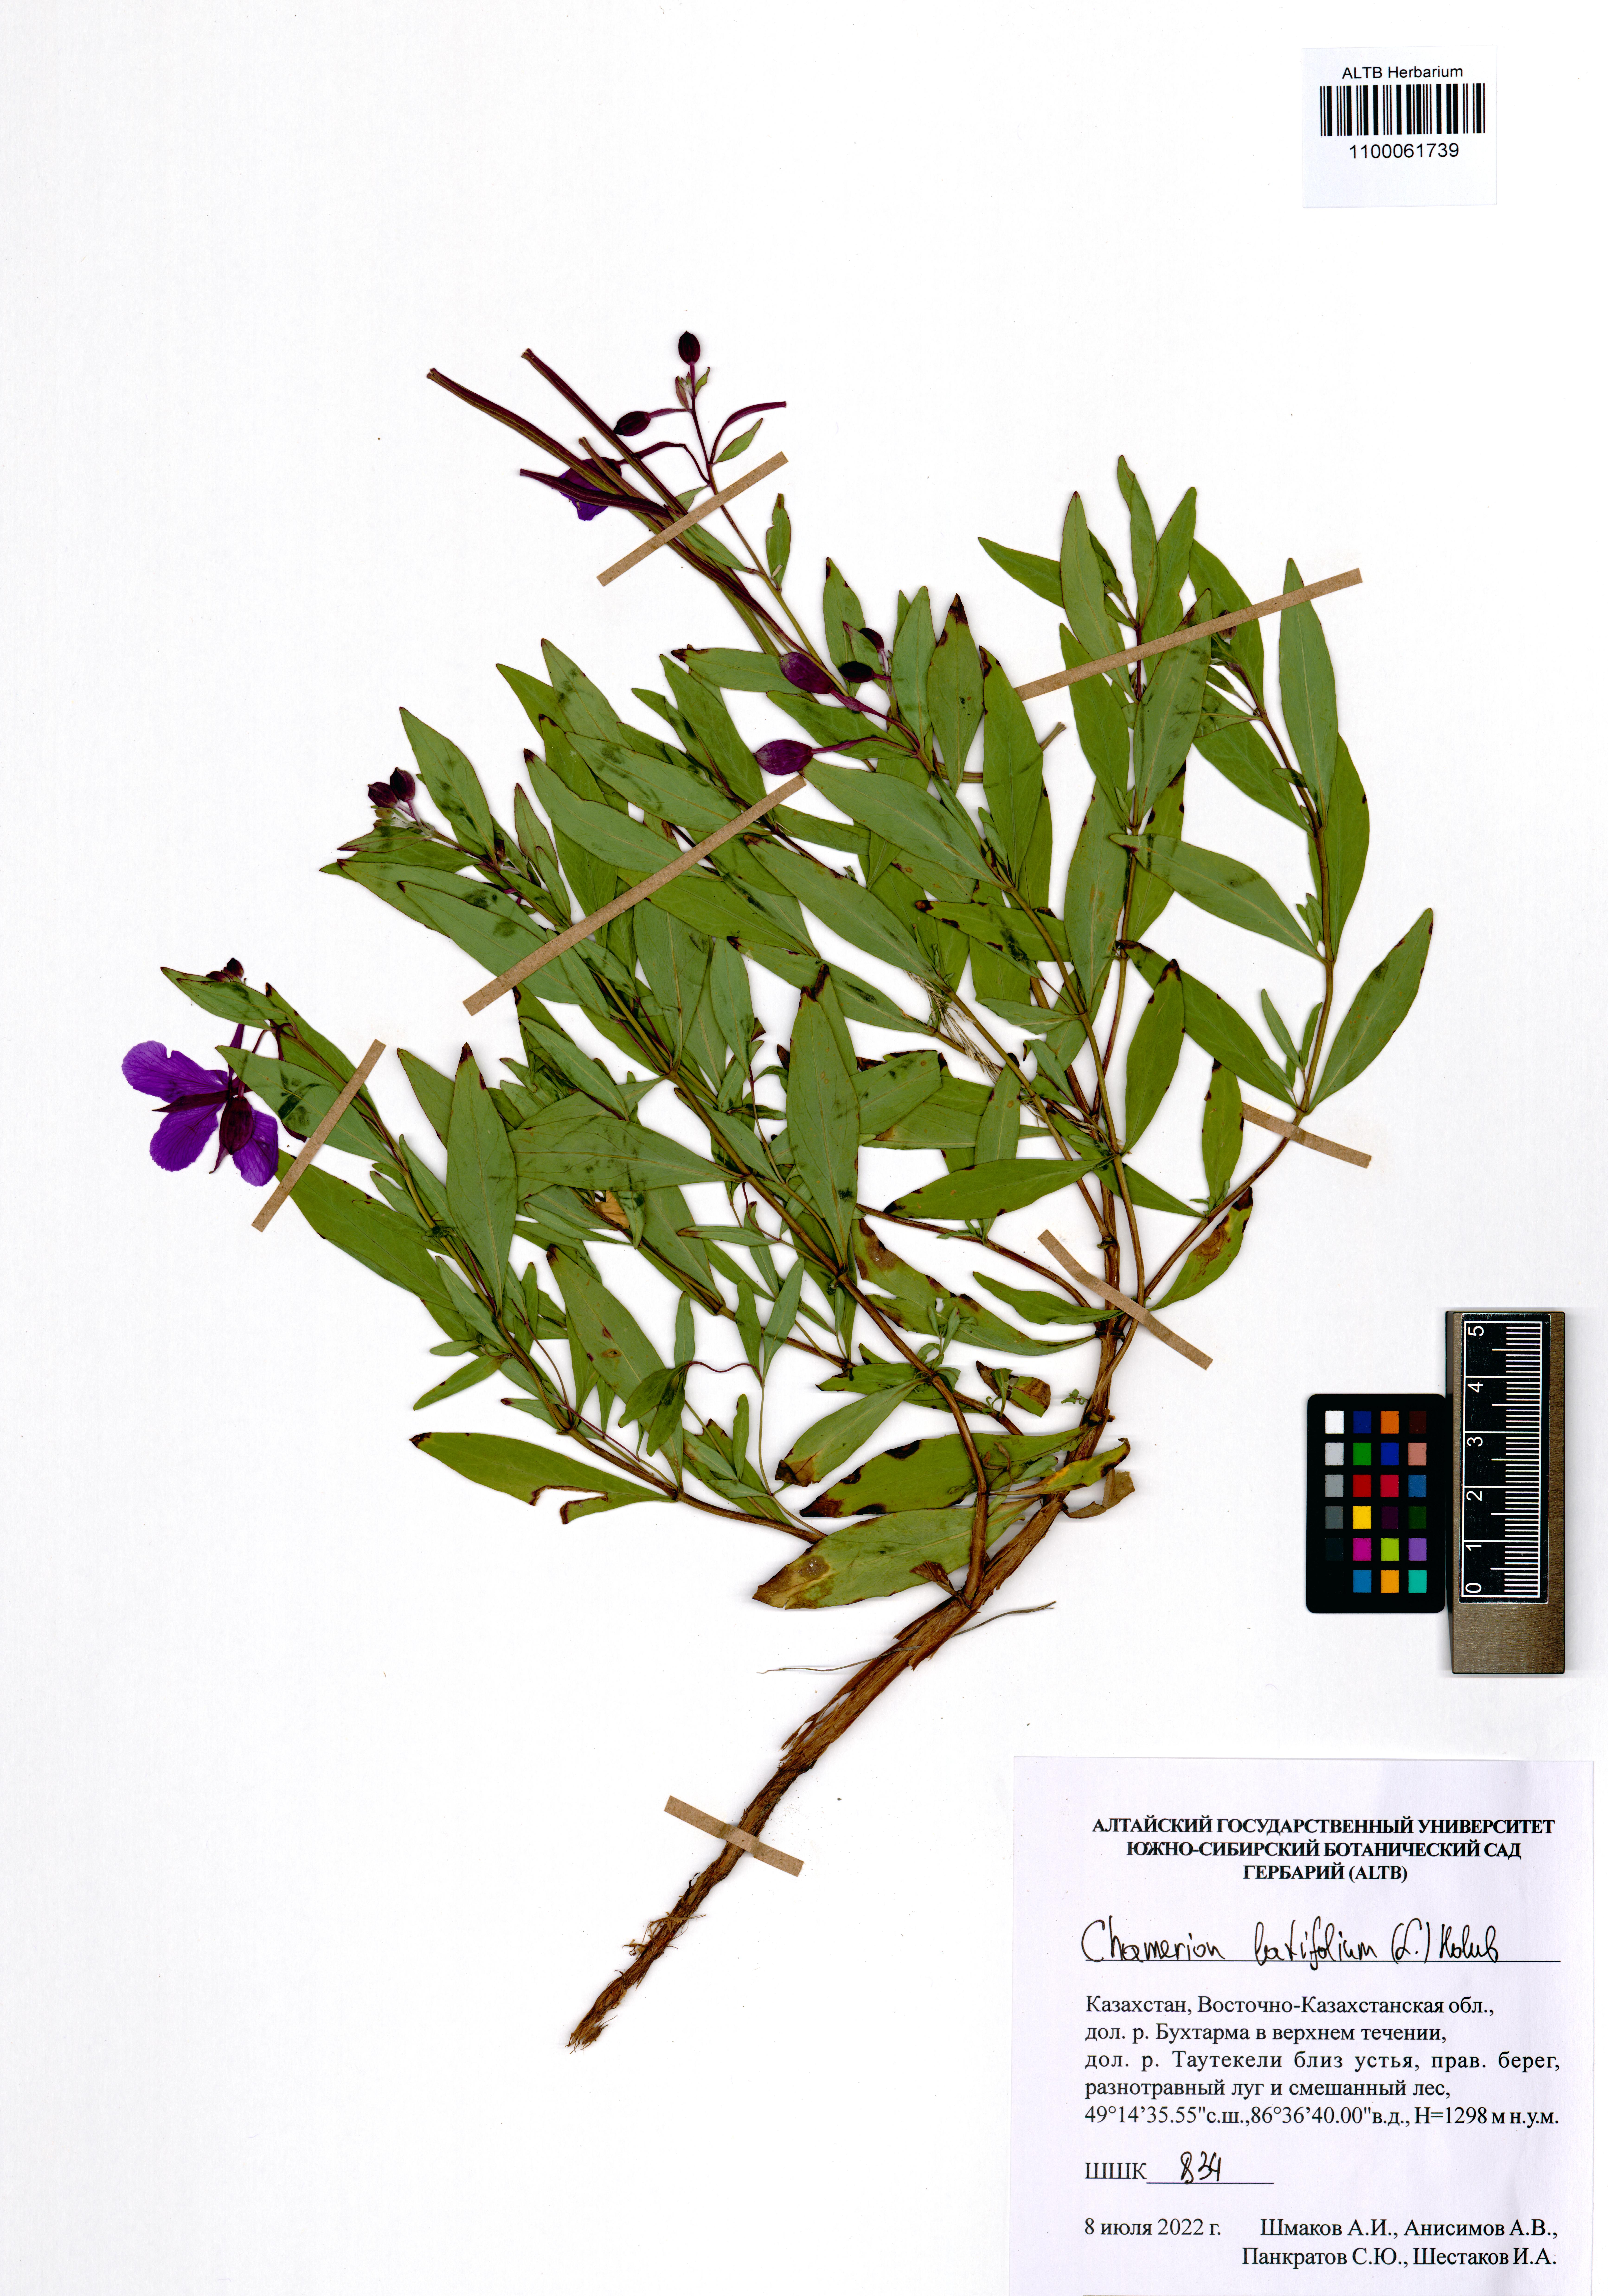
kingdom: Plantae
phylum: Tracheophyta
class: Magnoliopsida
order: Myrtales
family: Onagraceae
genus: Chamaenerion
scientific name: Chamaenerion latifolium
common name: Dwarf fireweed
